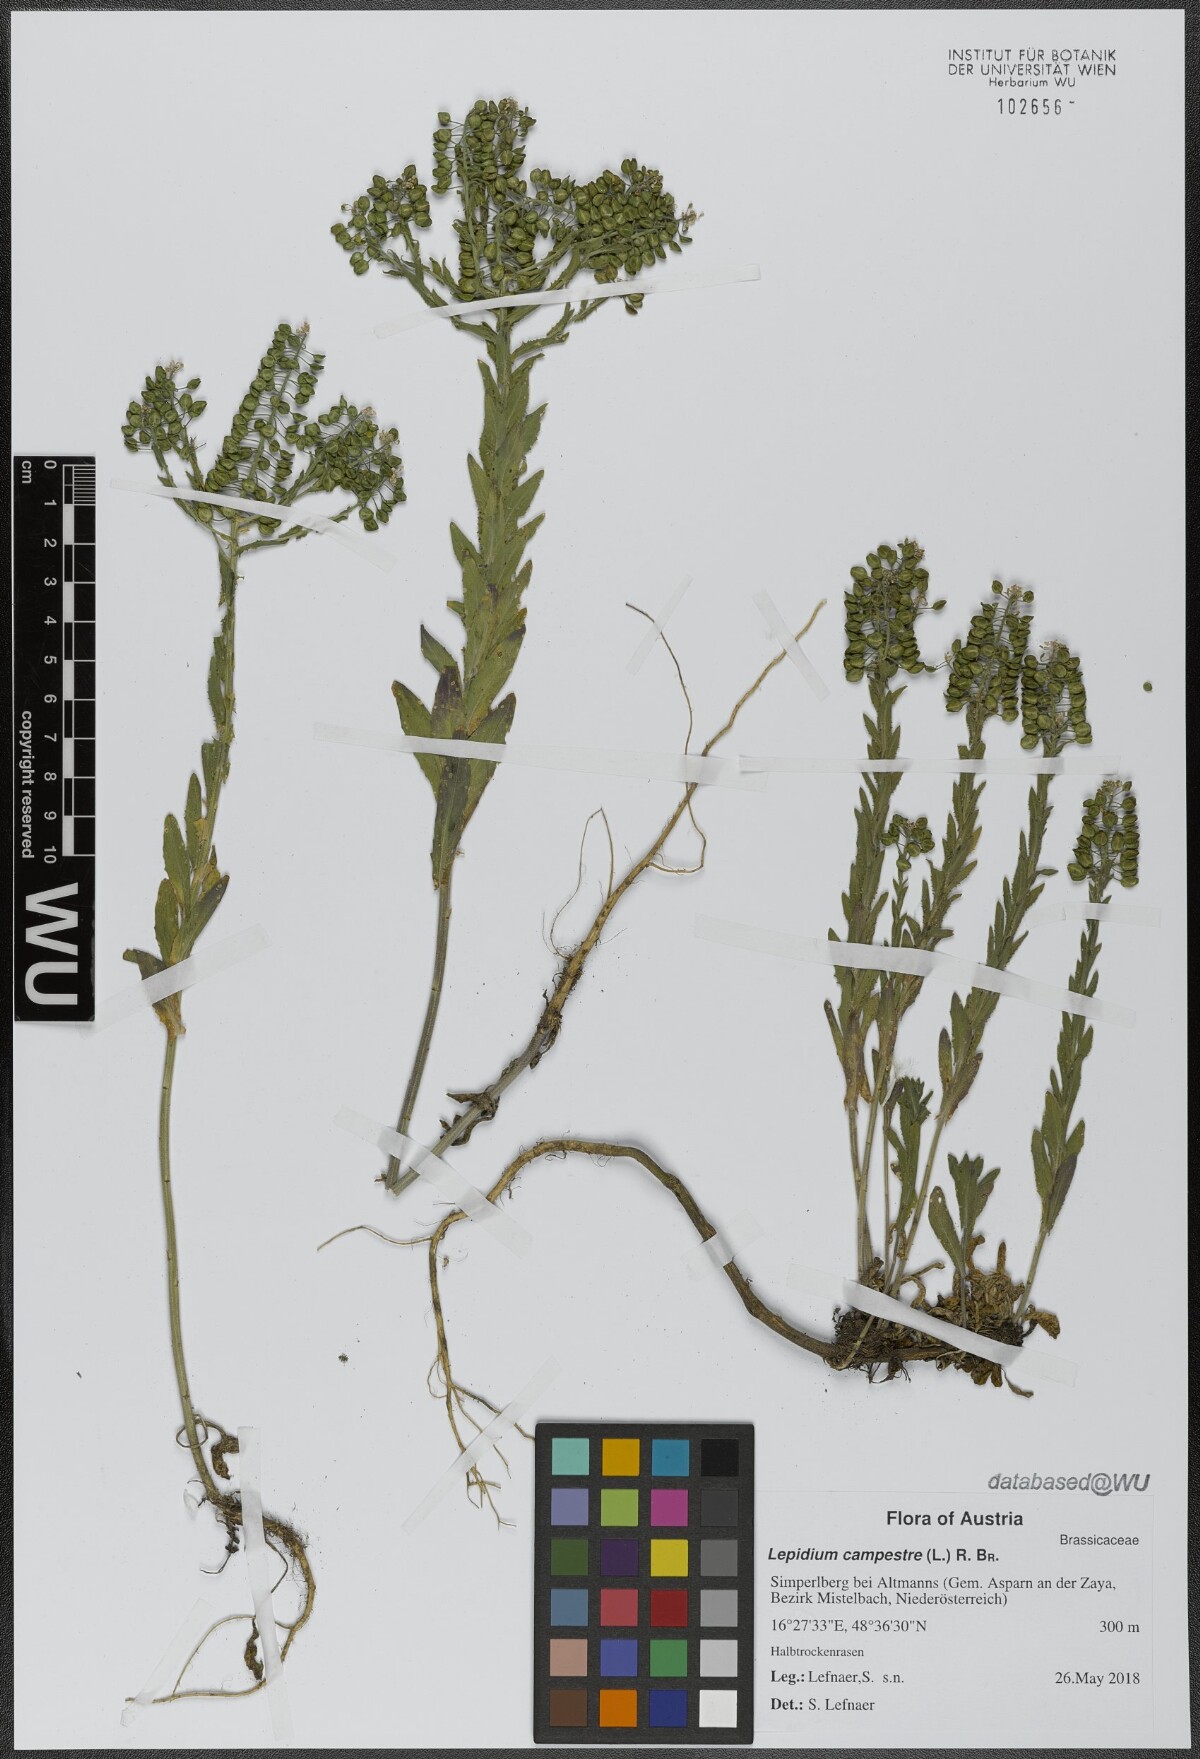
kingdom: Plantae
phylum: Tracheophyta
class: Magnoliopsida
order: Brassicales
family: Brassicaceae
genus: Lepidium
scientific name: Lepidium campestre
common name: Field pepperwort
